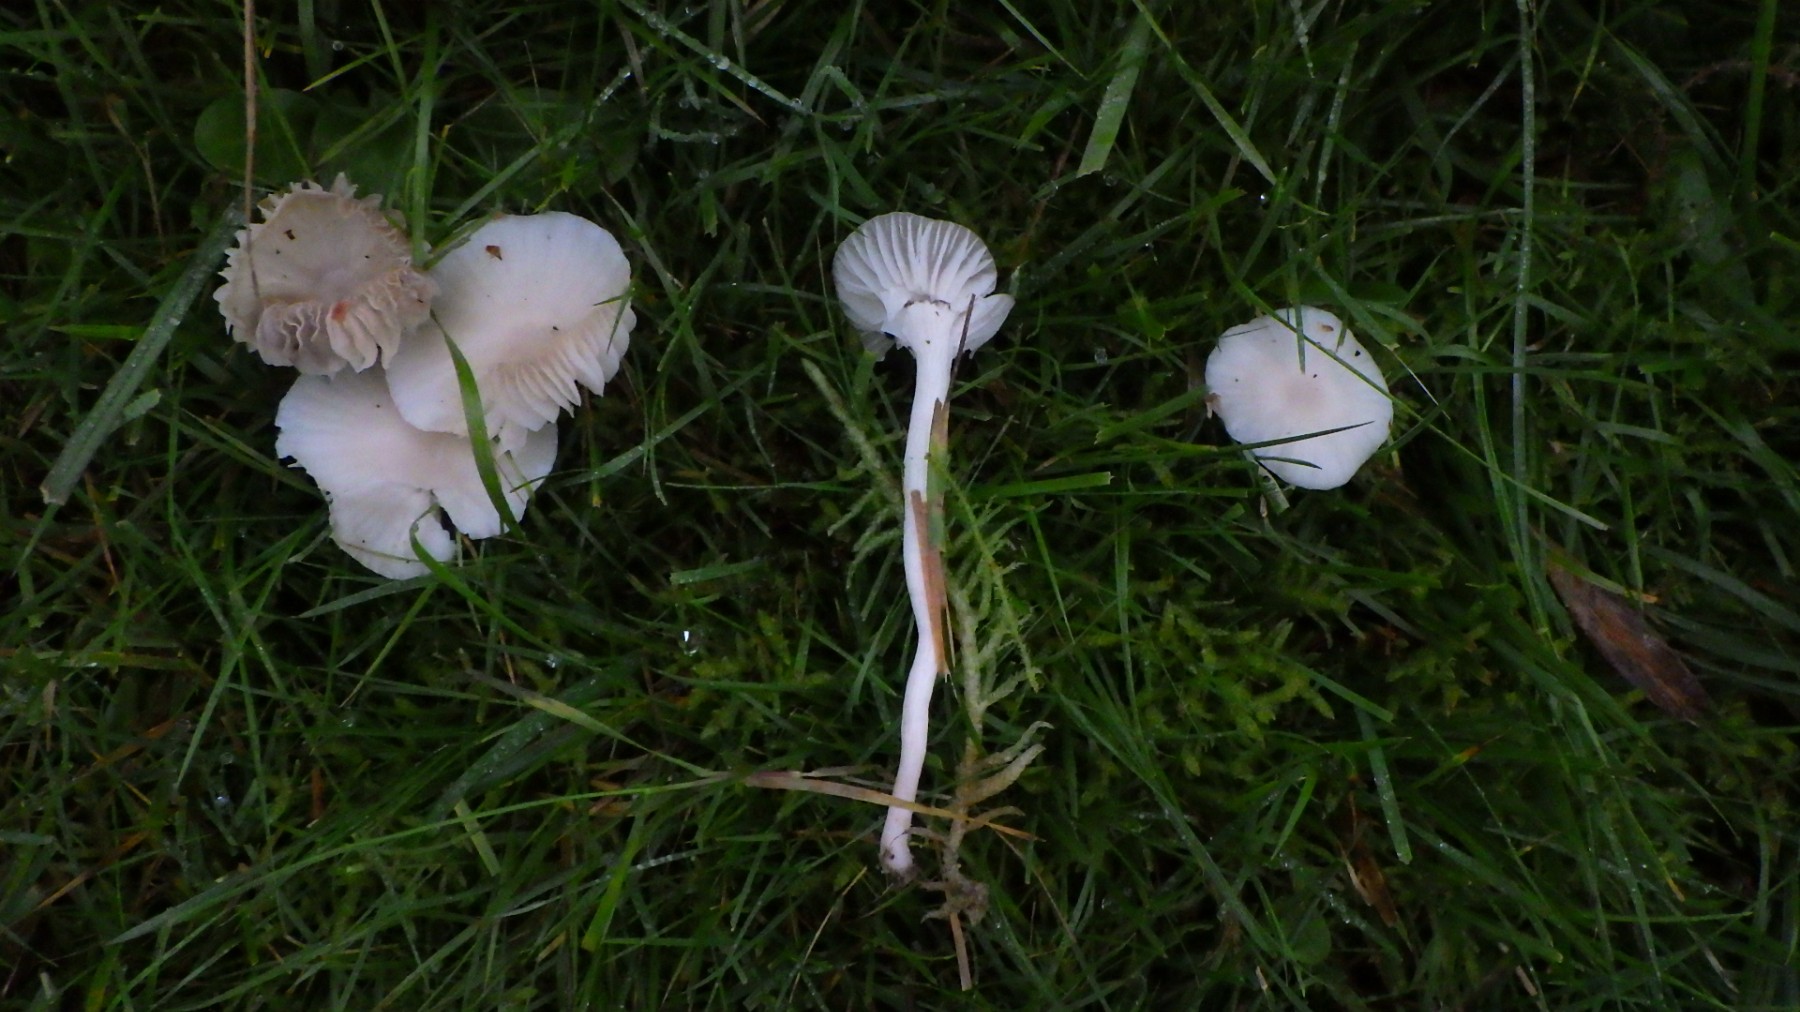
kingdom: Fungi
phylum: Basidiomycota
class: Agaricomycetes
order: Agaricales
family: Hygrophoraceae
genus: Cuphophyllus
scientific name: Cuphophyllus
